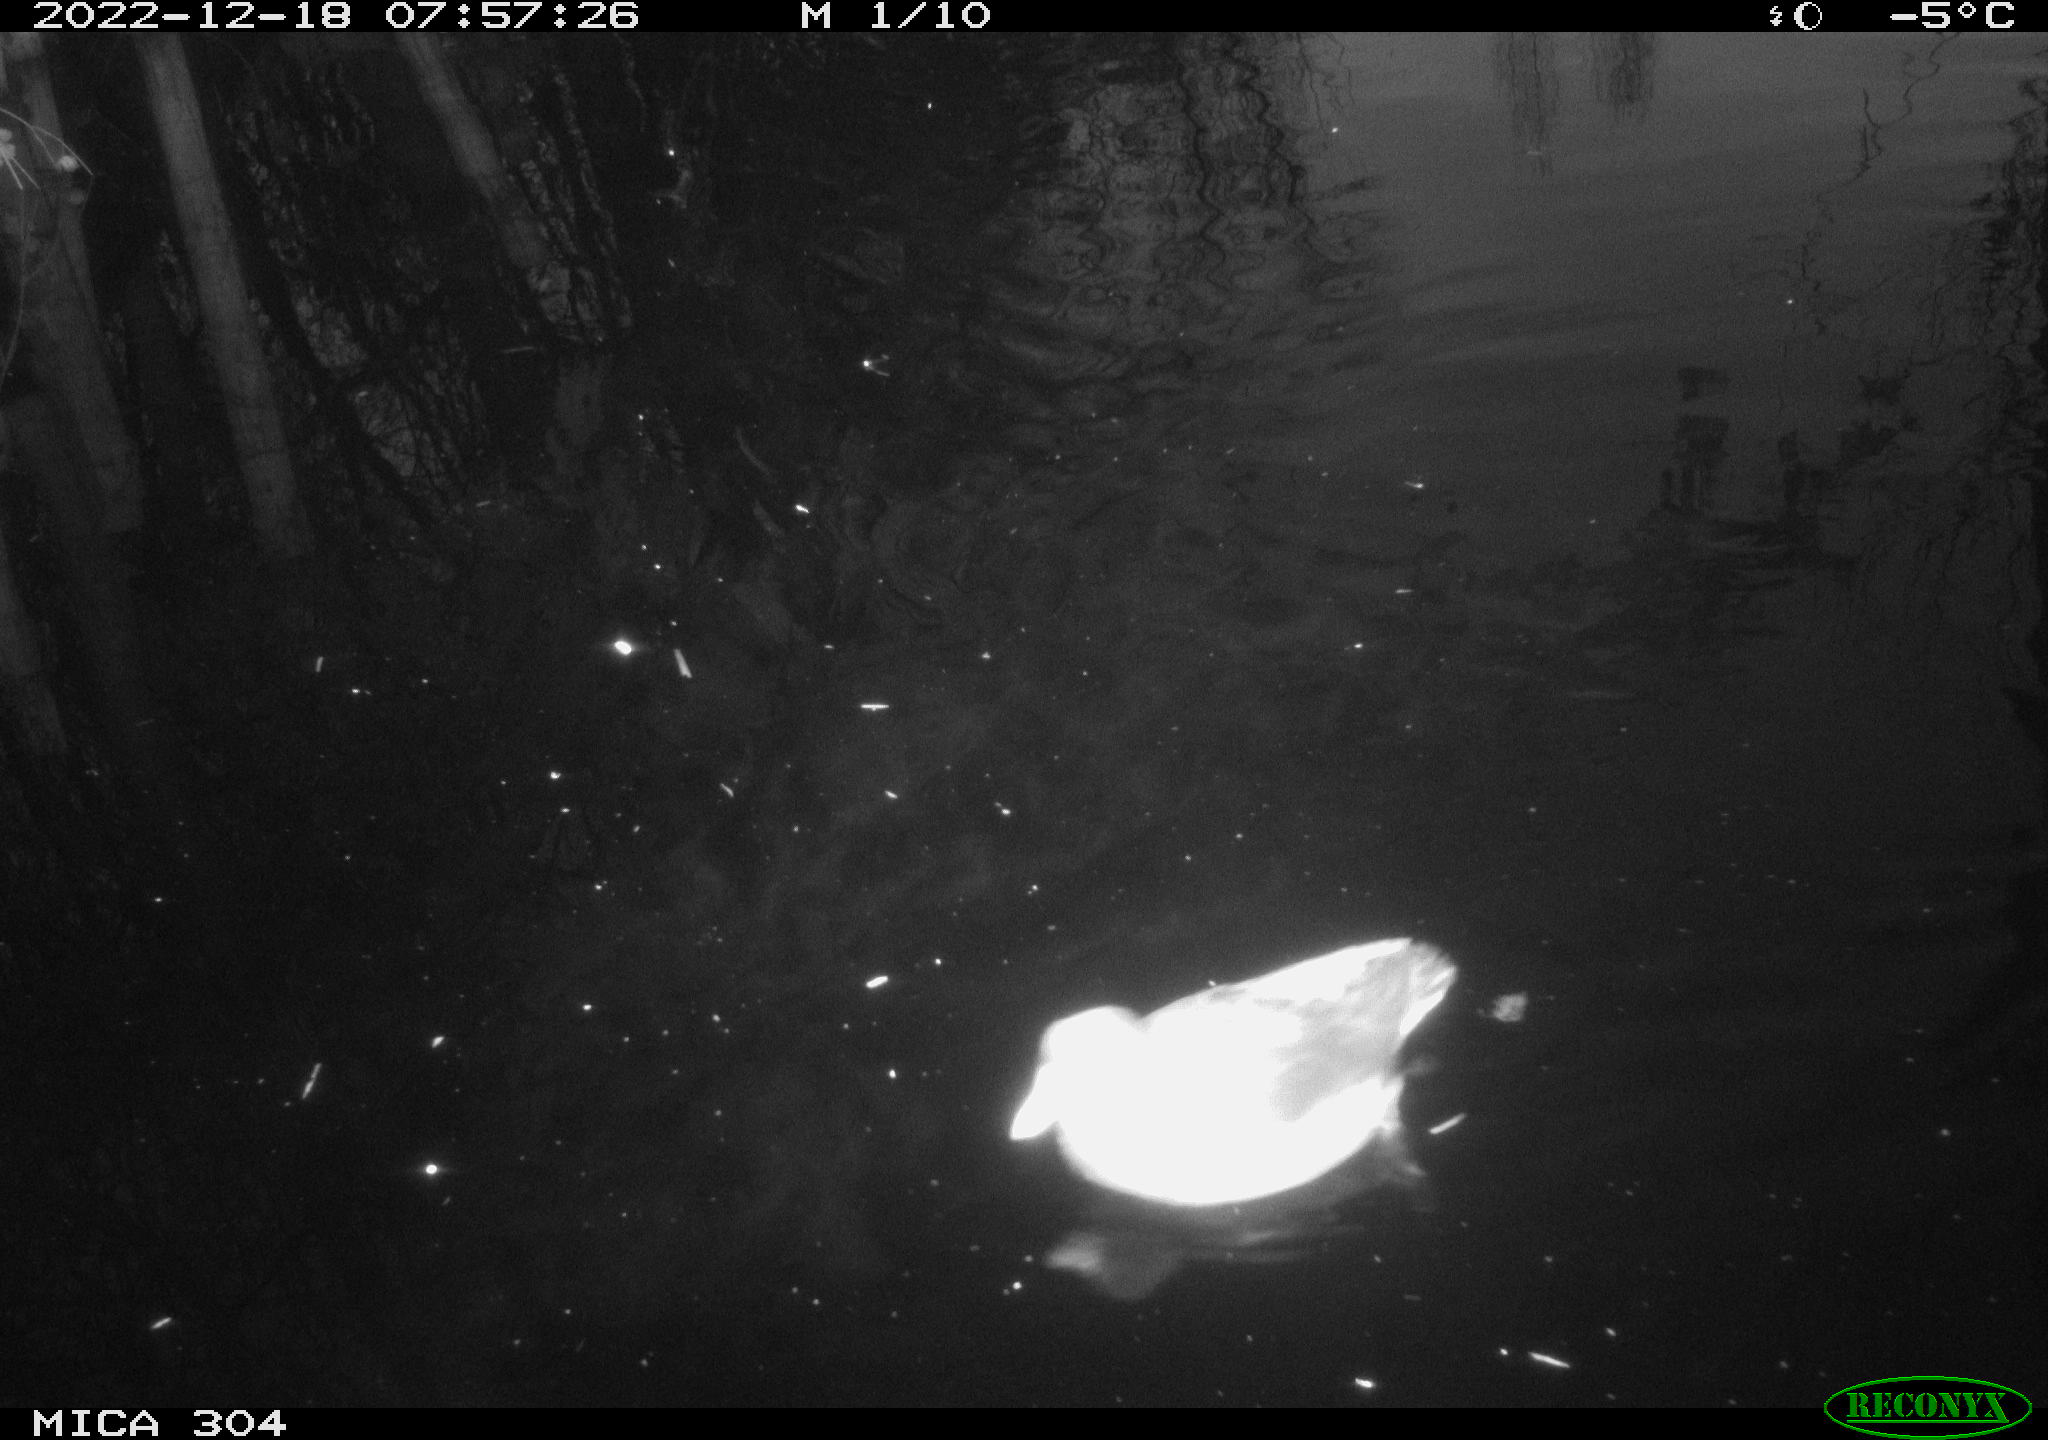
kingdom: Animalia
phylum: Chordata
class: Aves
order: Gruiformes
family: Rallidae
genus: Gallinula
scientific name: Gallinula chloropus
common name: Common moorhen
